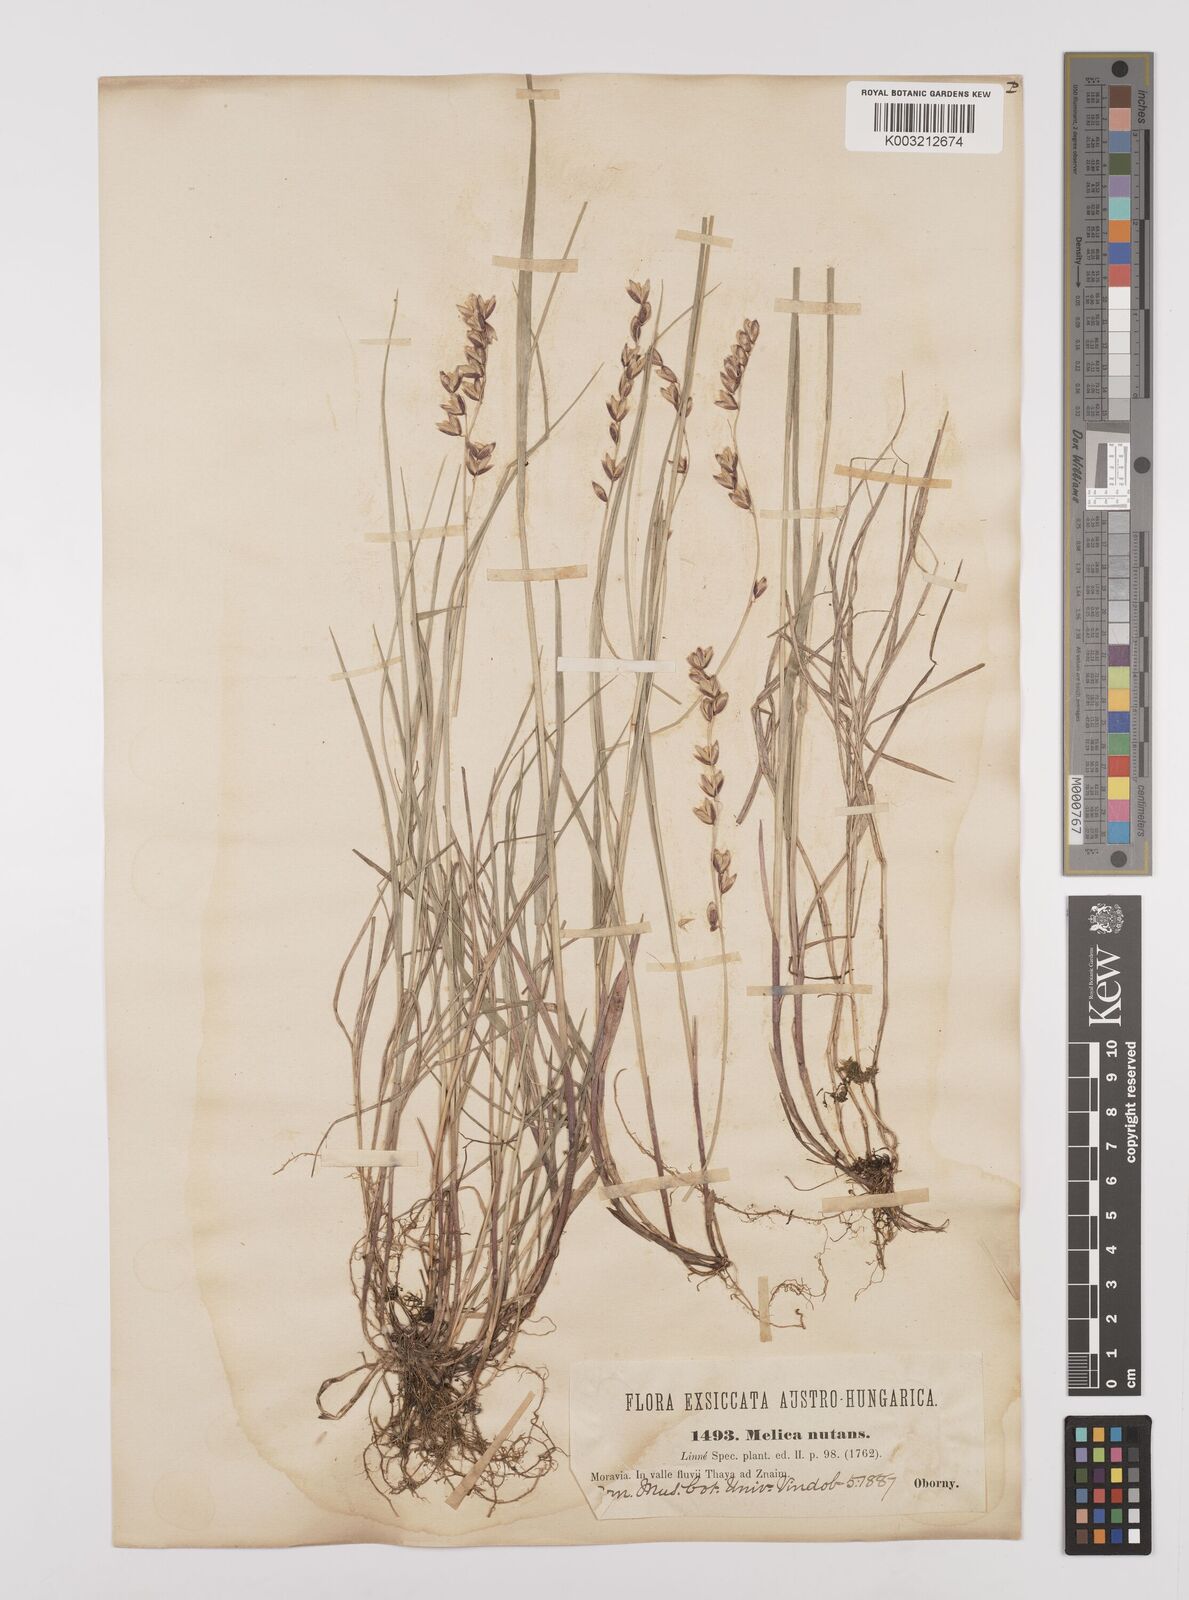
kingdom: Plantae
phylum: Tracheophyta
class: Liliopsida
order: Poales
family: Poaceae
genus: Melica
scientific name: Melica nutans
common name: Mountain melick
